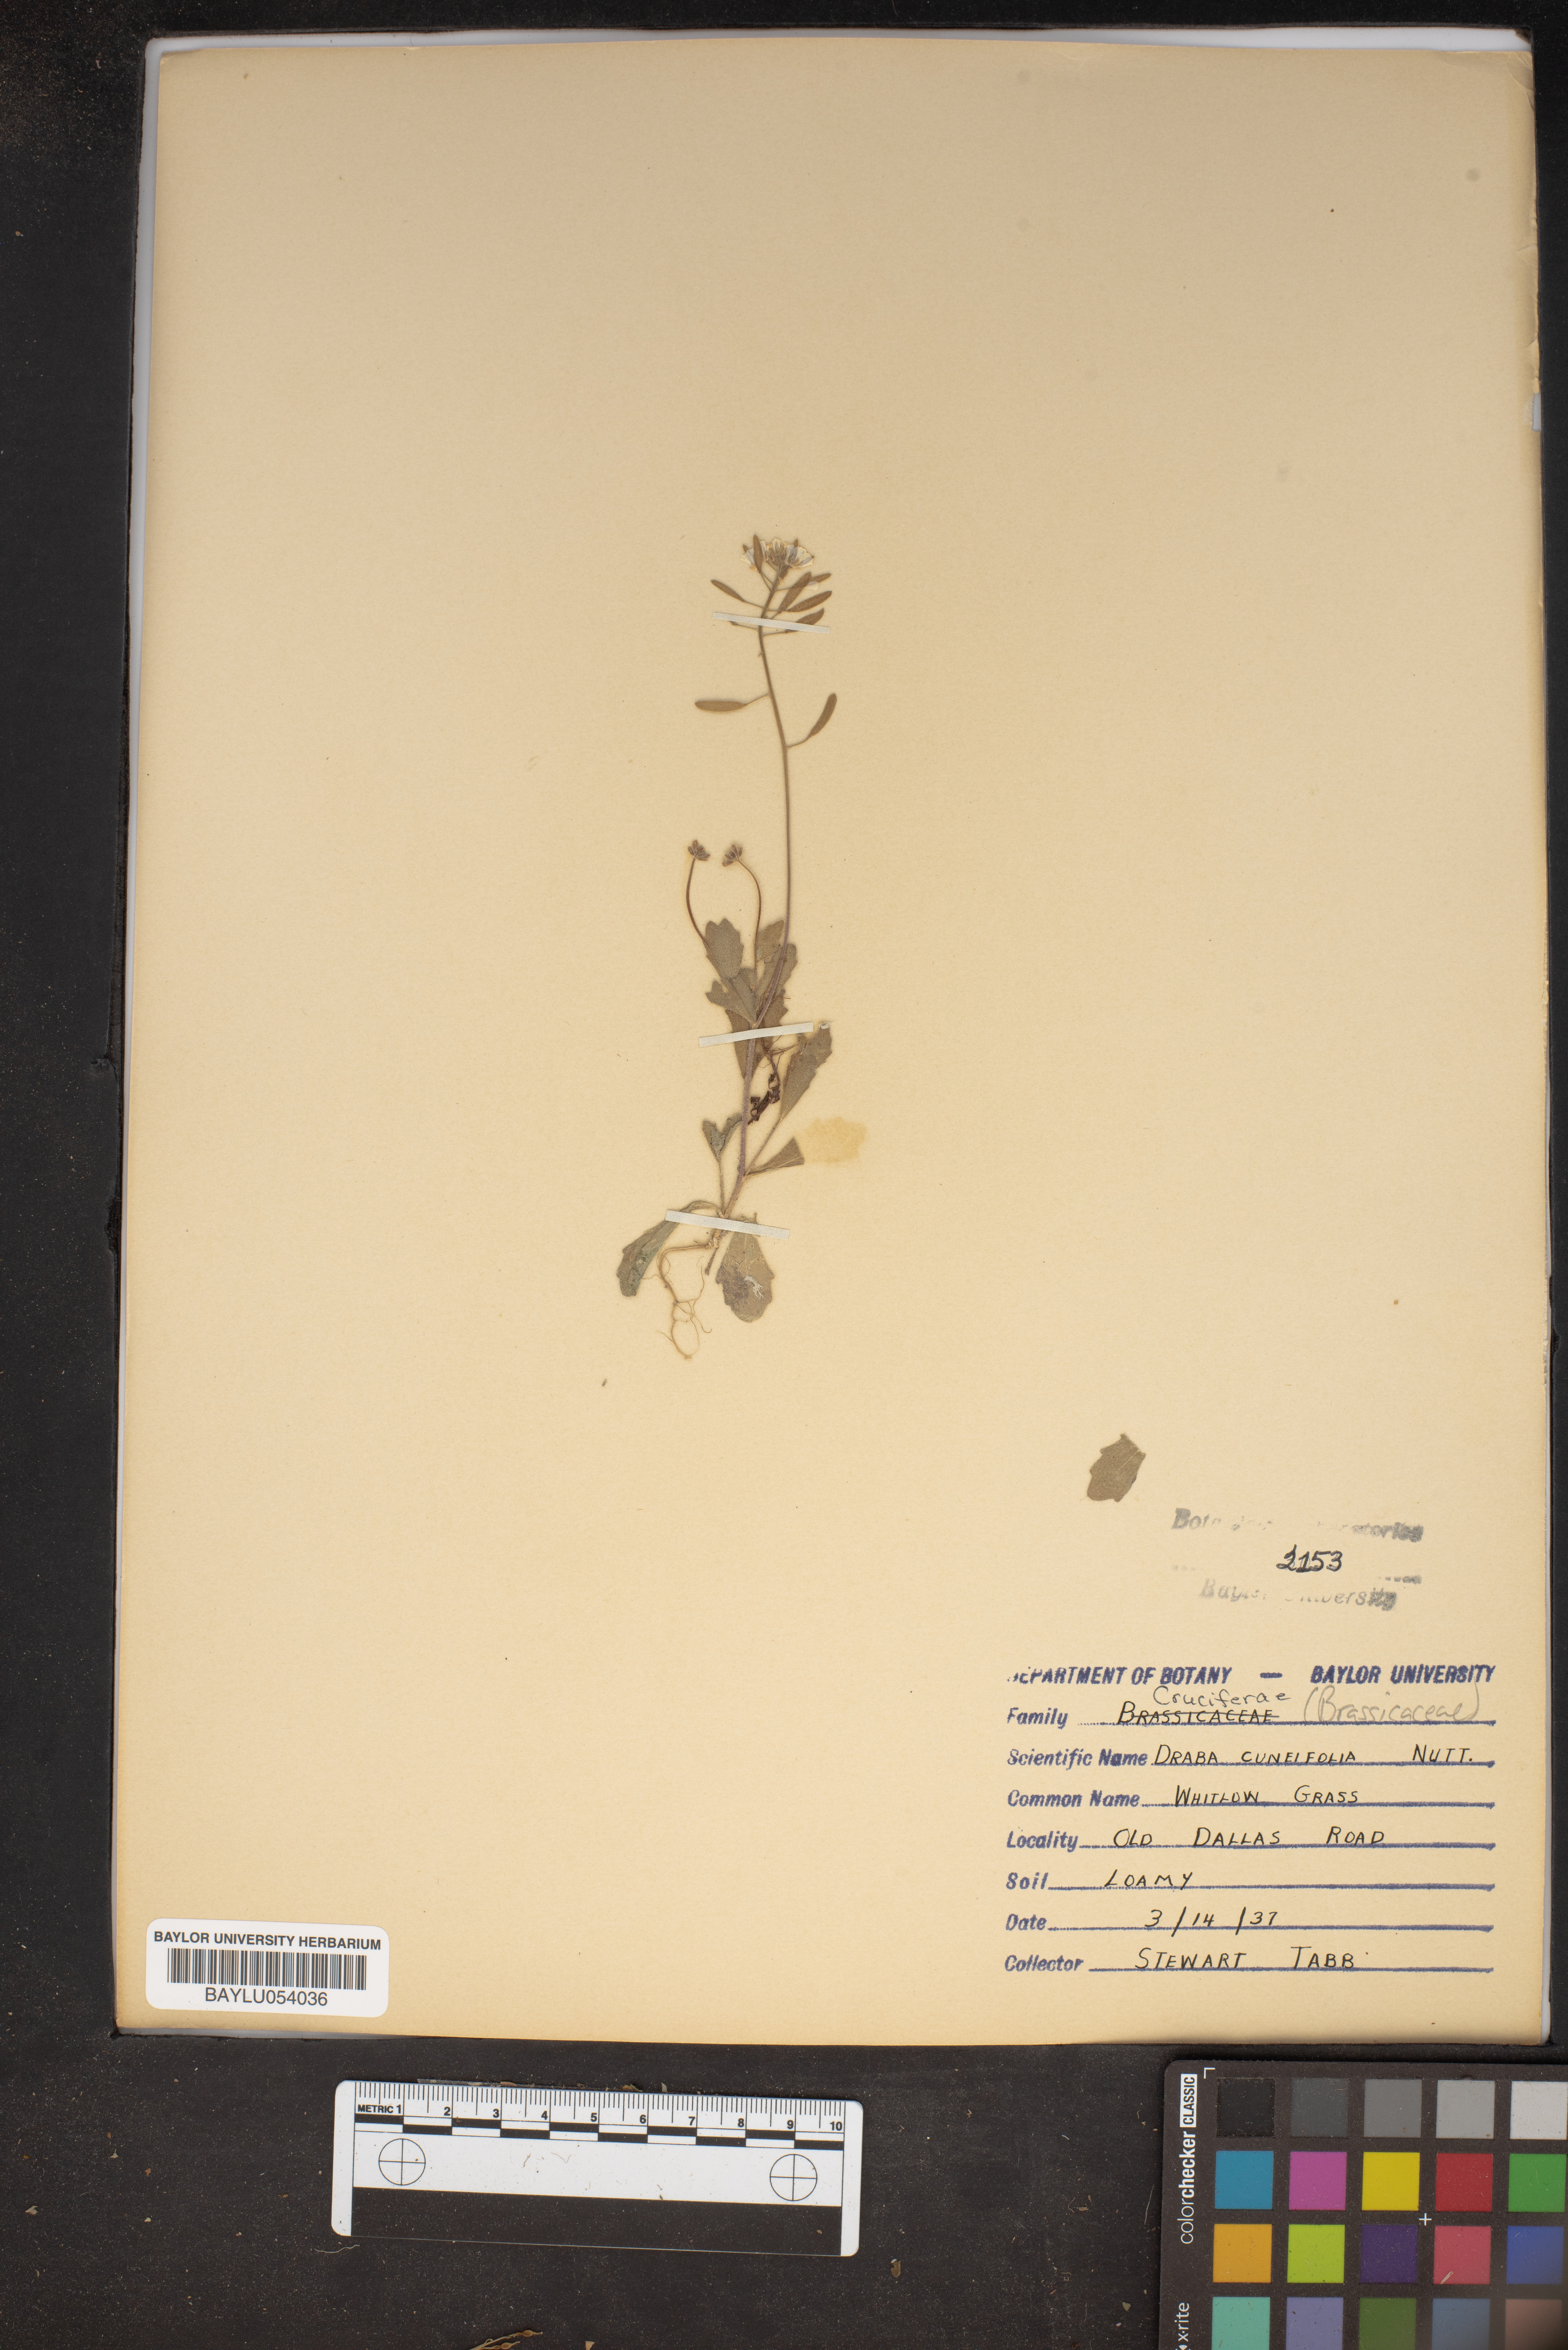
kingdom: Plantae
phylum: Tracheophyta
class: Magnoliopsida
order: Brassicales
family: Brassicaceae
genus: Tomostima
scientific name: Tomostima cuneifolia
